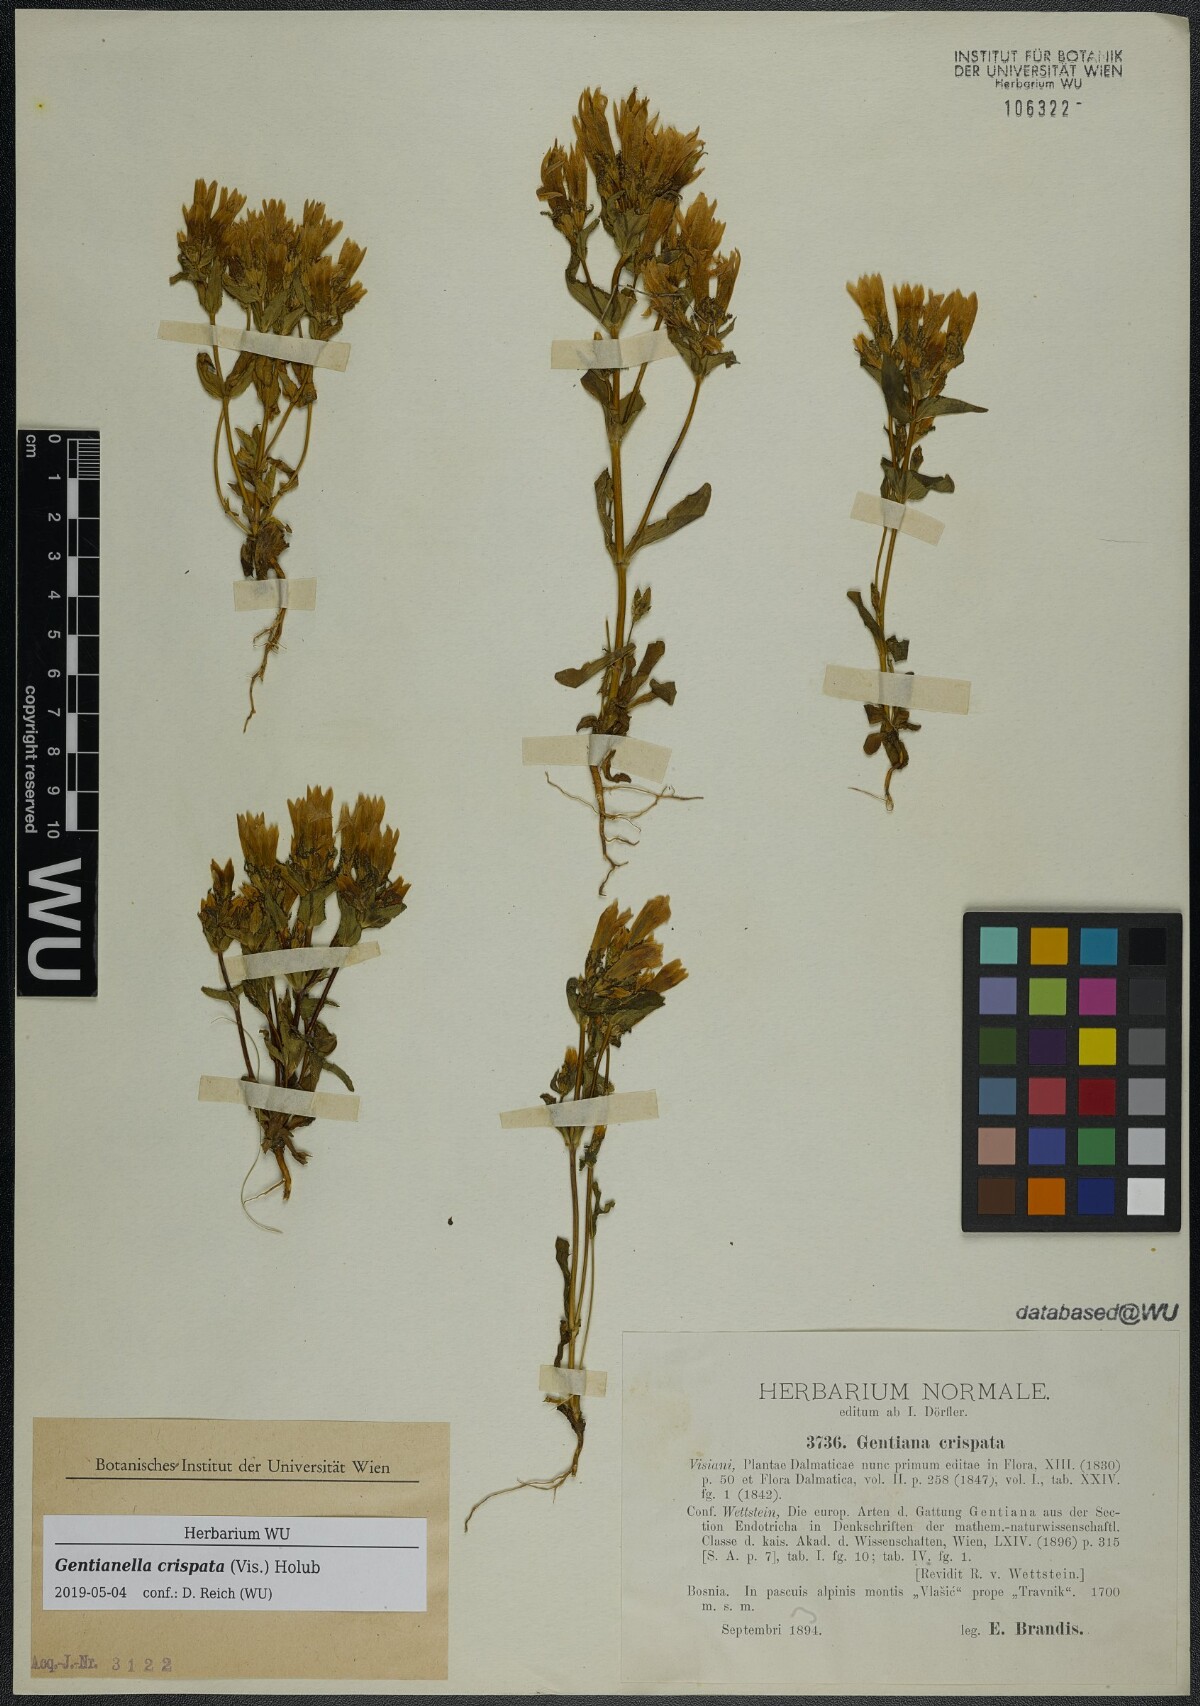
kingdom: Plantae
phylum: Tracheophyta
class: Magnoliopsida
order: Gentianales
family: Gentianaceae
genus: Gentianella
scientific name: Gentianella crispata
